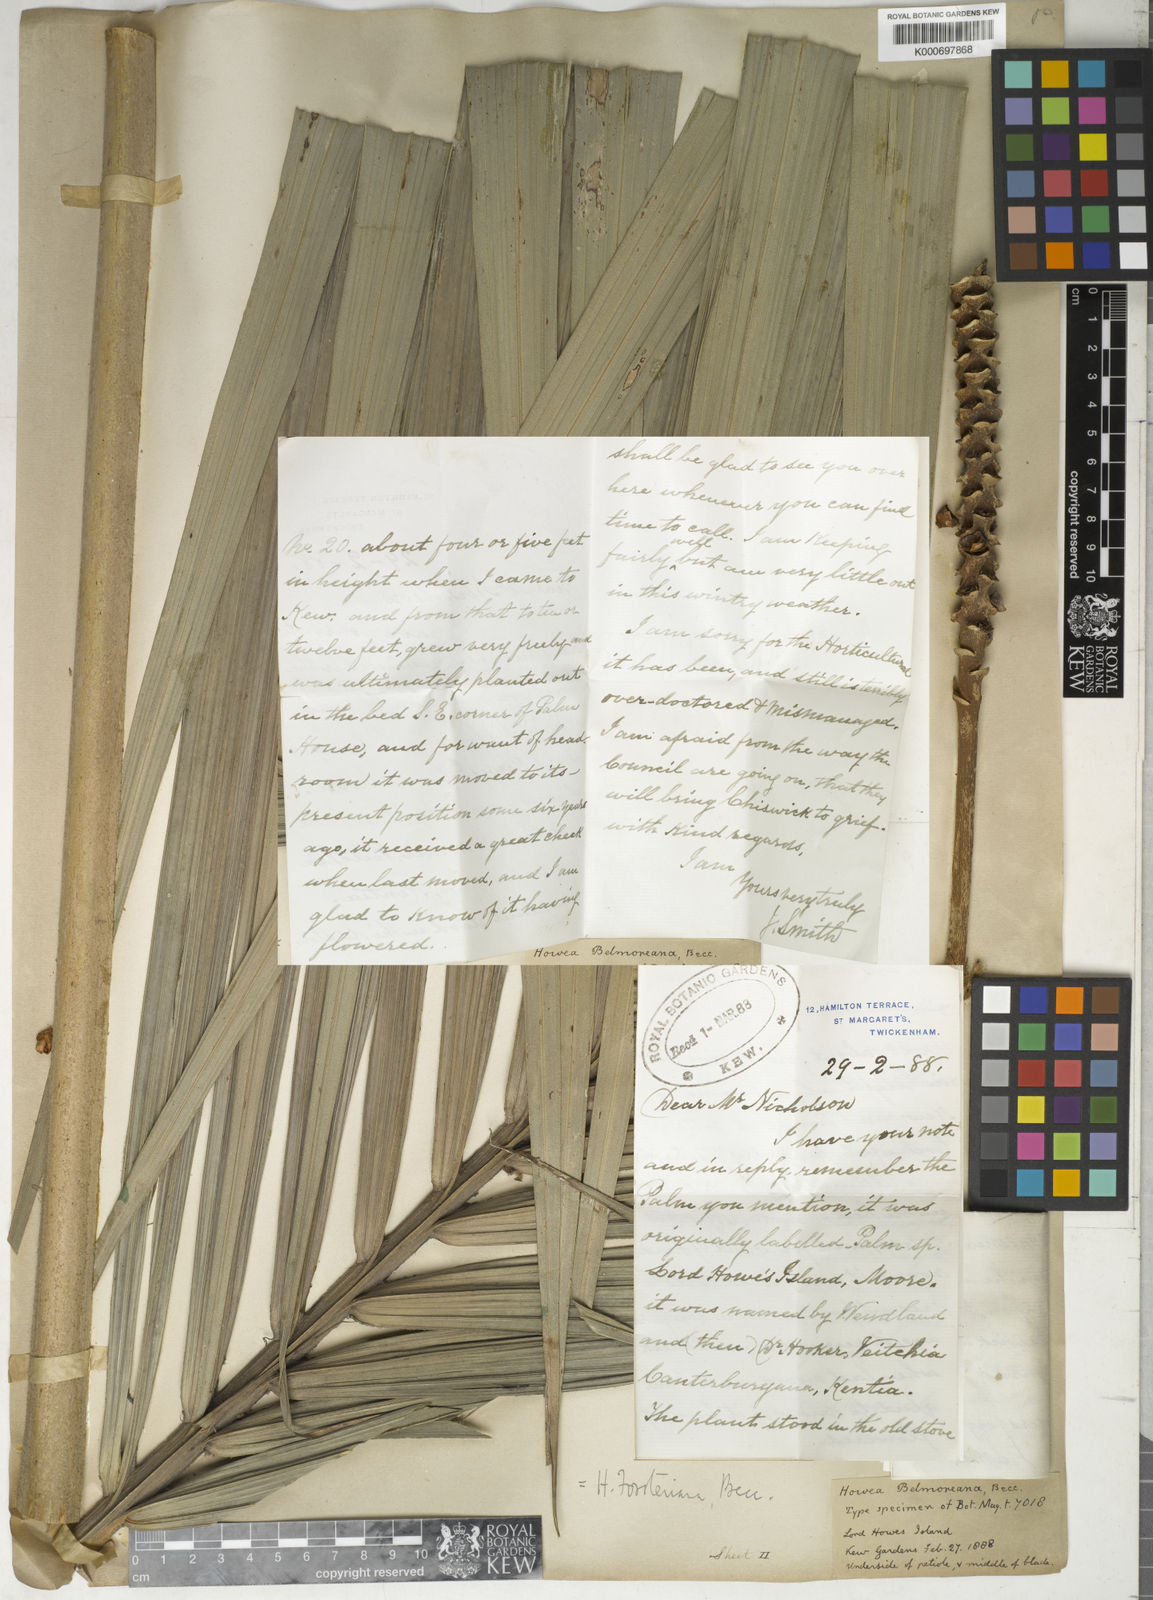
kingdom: Plantae
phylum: Tracheophyta
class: Liliopsida
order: Arecales
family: Arecaceae
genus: Howea
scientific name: Howea forsteriana
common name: Kentia palm
